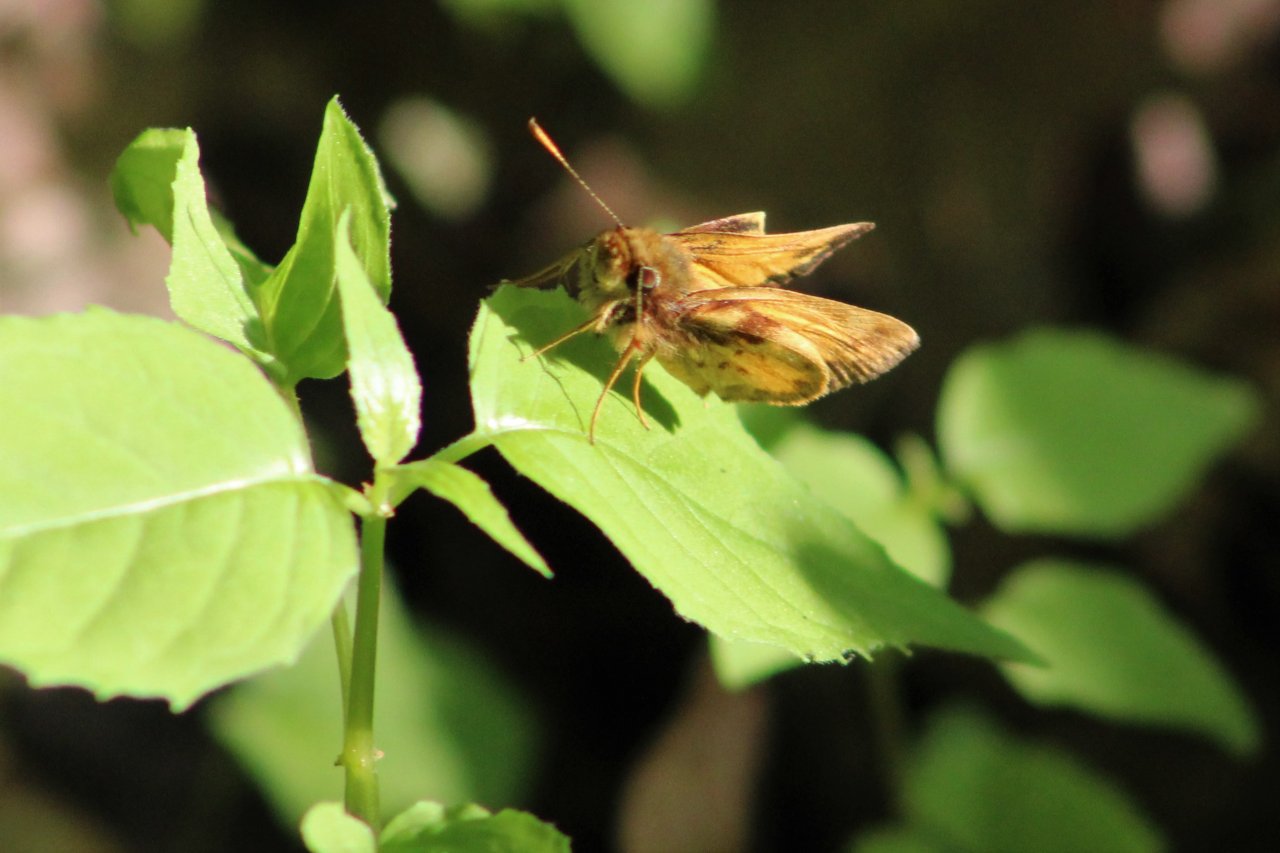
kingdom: Animalia
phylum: Arthropoda
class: Insecta
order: Lepidoptera
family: Hesperiidae
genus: Lon
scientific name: Lon zabulon
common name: Zabulon Skipper
